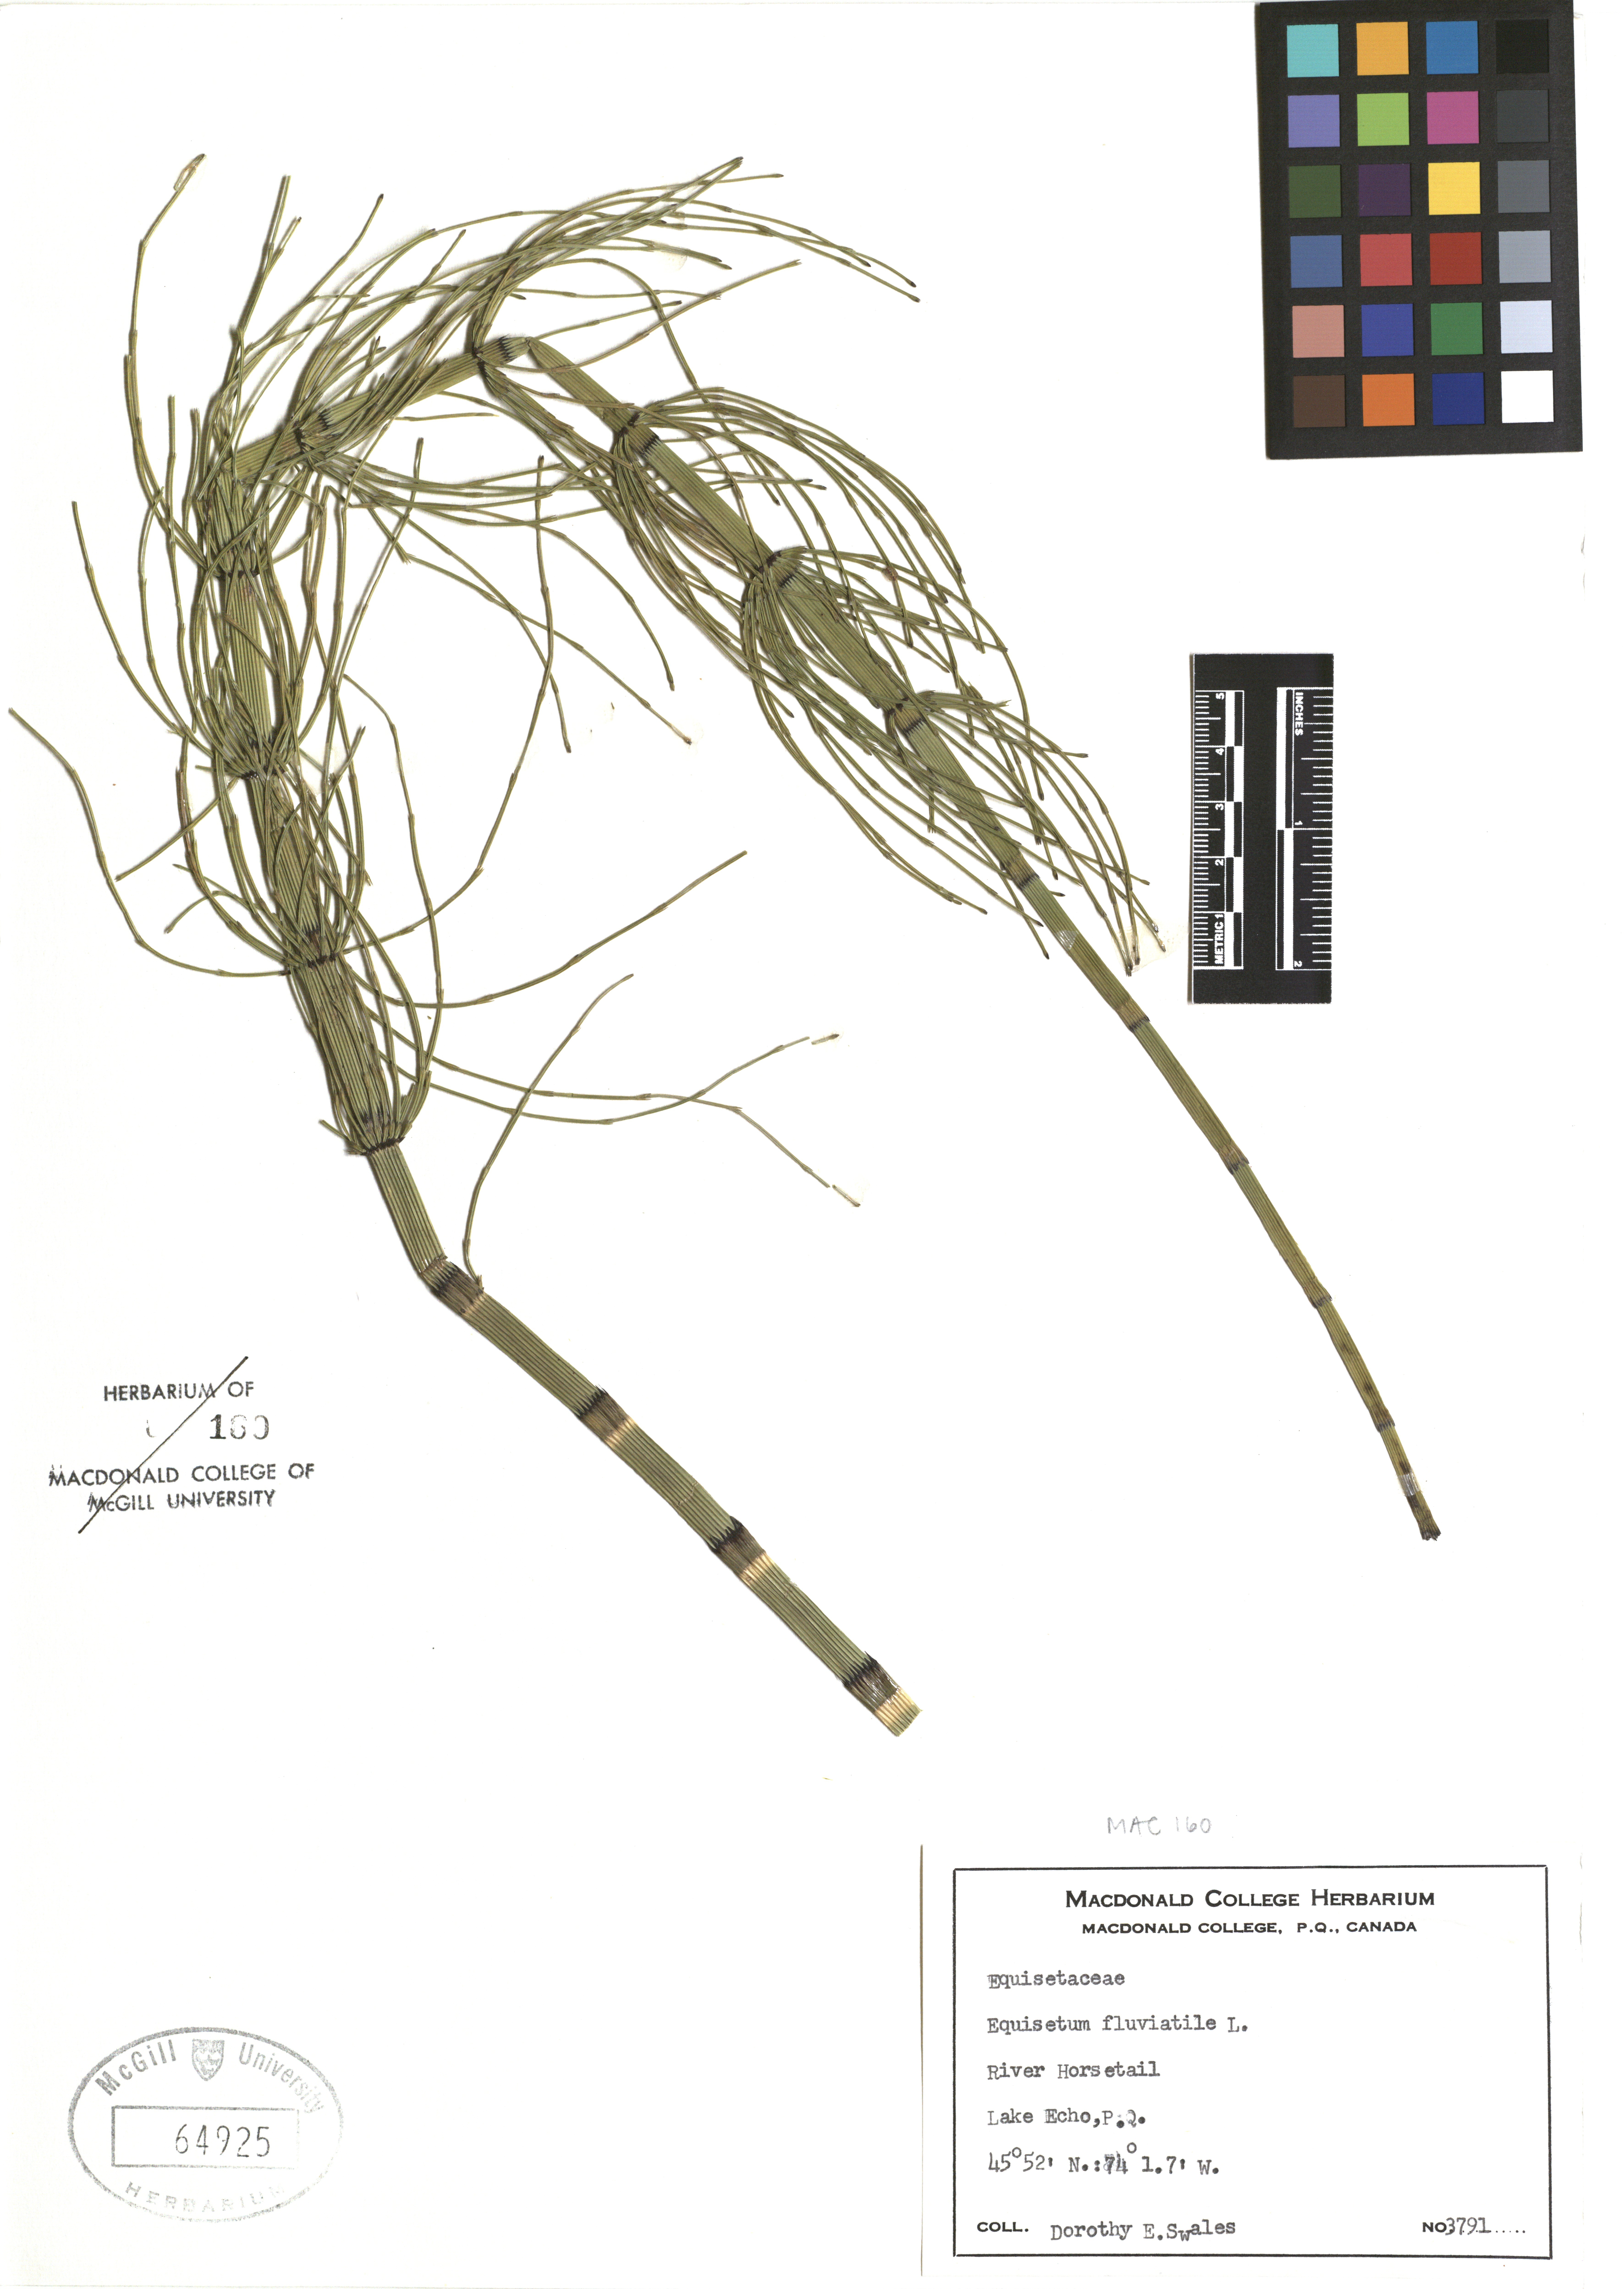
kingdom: Plantae
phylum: Tracheophyta
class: Polypodiopsida
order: Equisetales
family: Equisetaceae
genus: Equisetum
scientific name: Equisetum fluviatile
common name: Water horsetail
